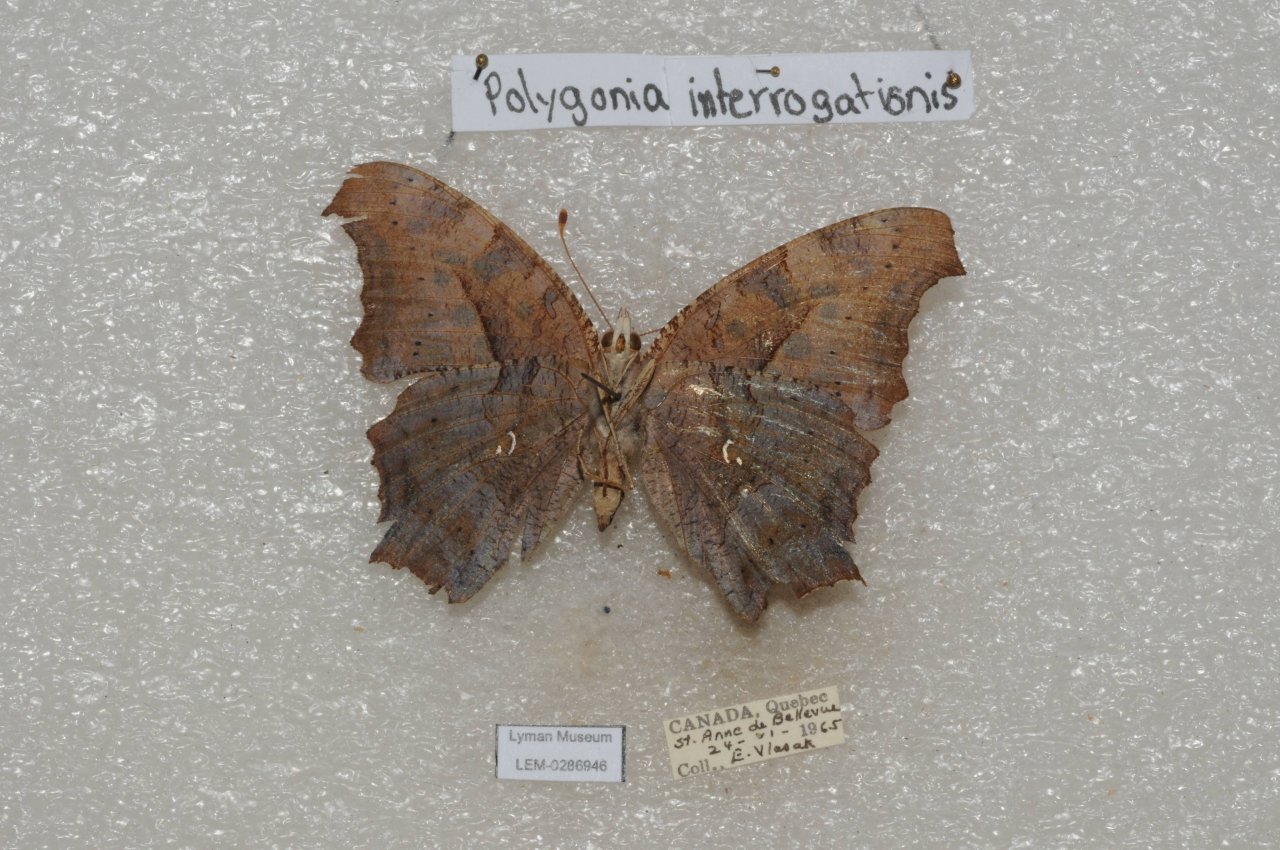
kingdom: Animalia
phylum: Arthropoda
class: Insecta
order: Lepidoptera
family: Nymphalidae
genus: Polygonia
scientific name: Polygonia interrogationis
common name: Question Mark
